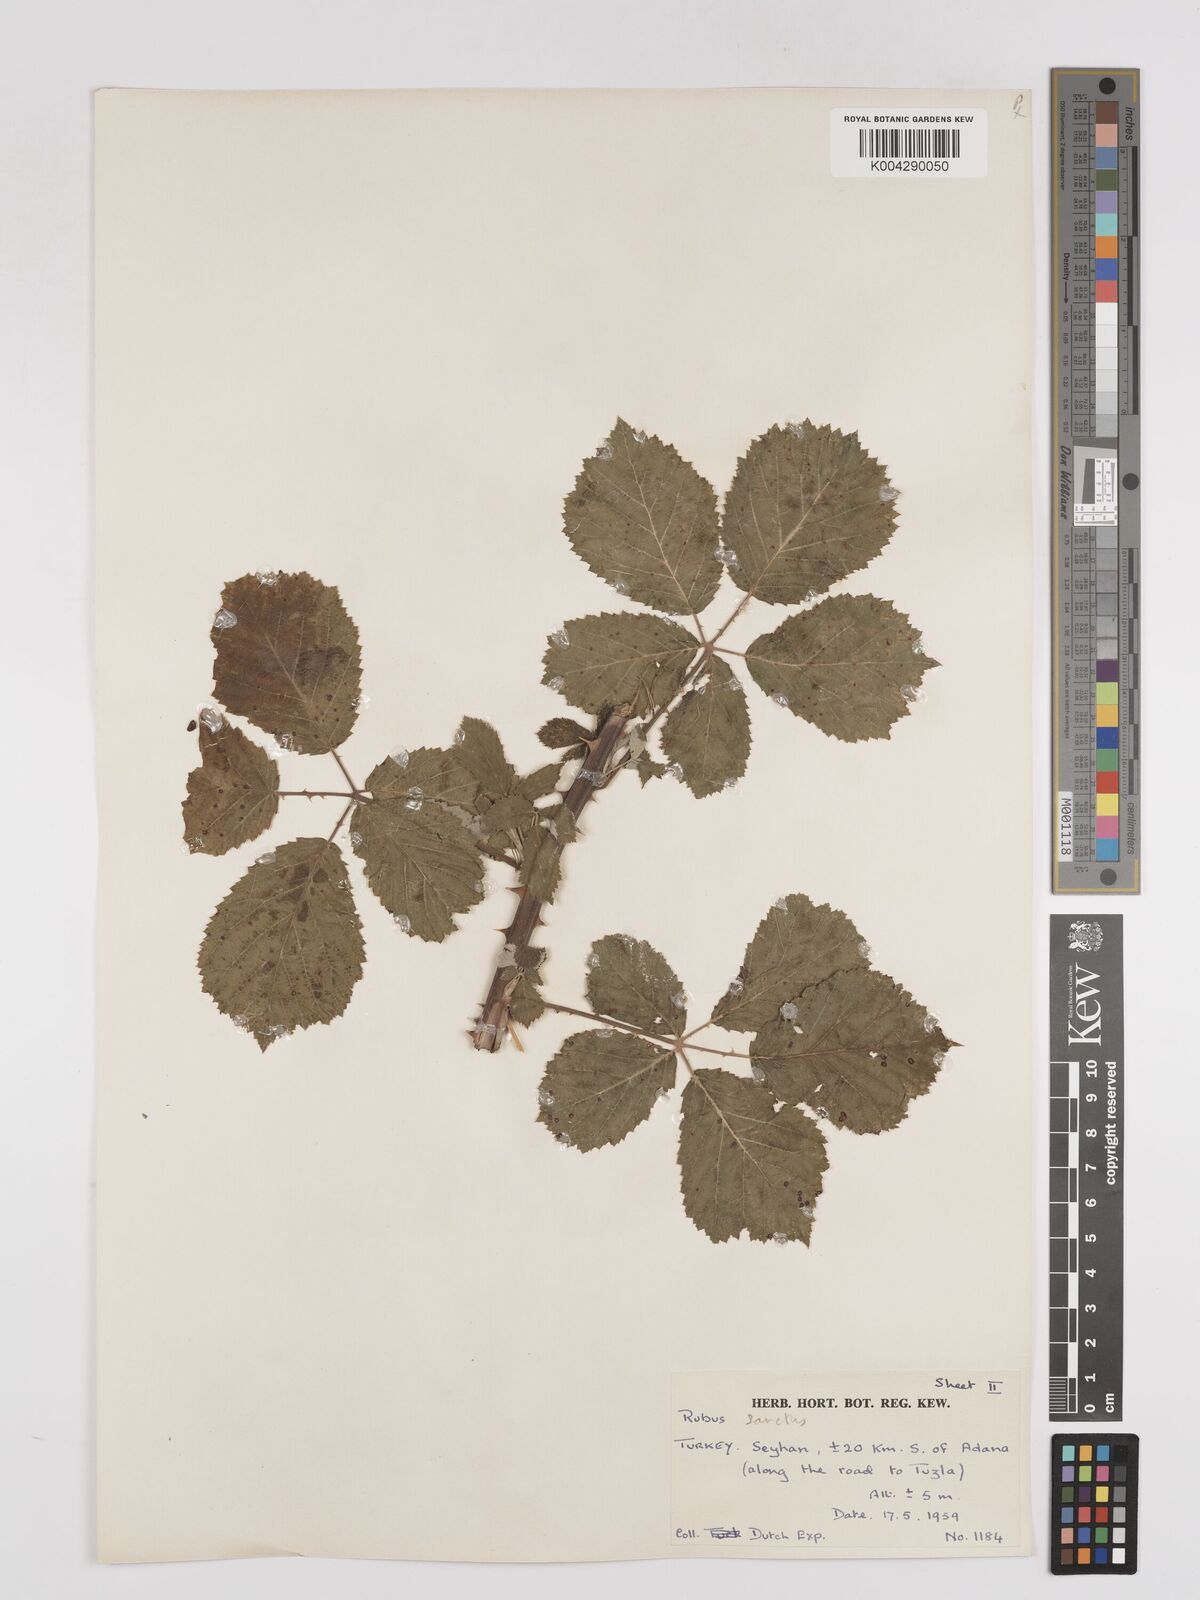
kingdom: Plantae
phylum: Tracheophyta
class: Magnoliopsida
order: Rosales
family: Rosaceae
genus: Rubus
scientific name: Rubus sanctus
